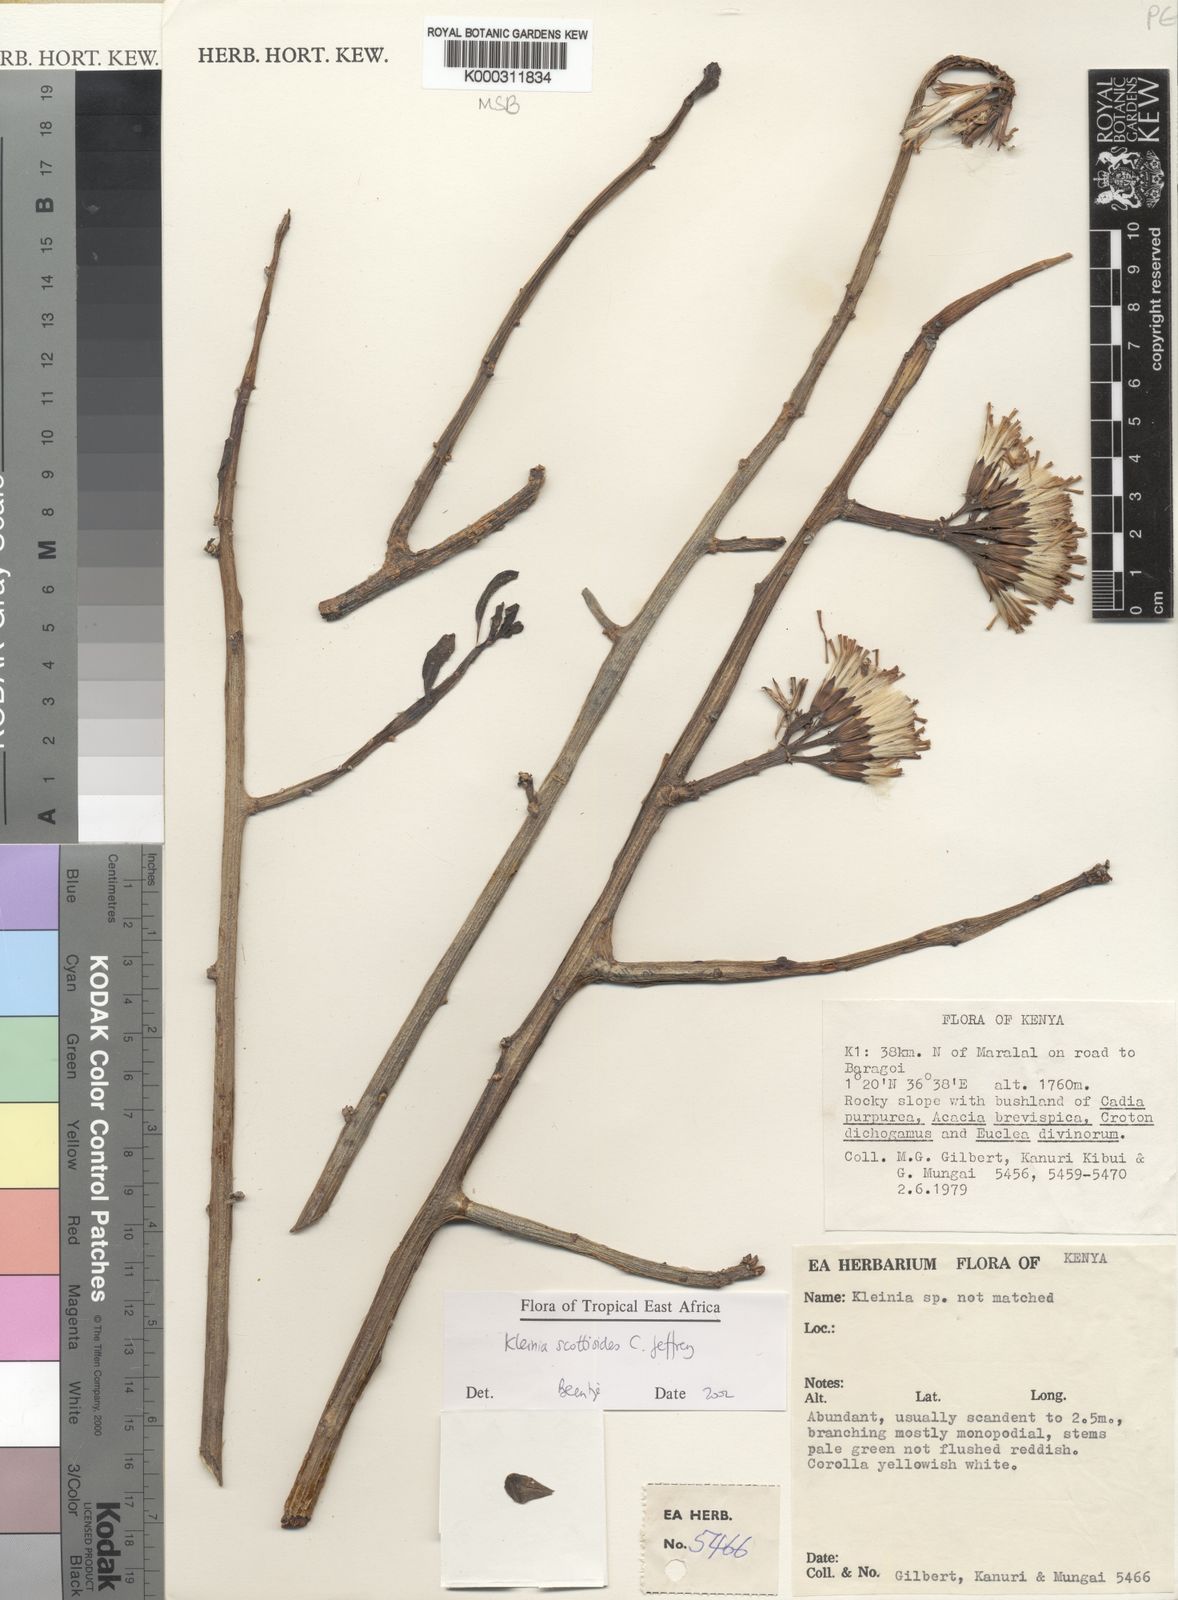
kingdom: Plantae
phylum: Tracheophyta
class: Magnoliopsida
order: Asterales
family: Asteraceae
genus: Curio
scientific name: Curio avasimontanus
